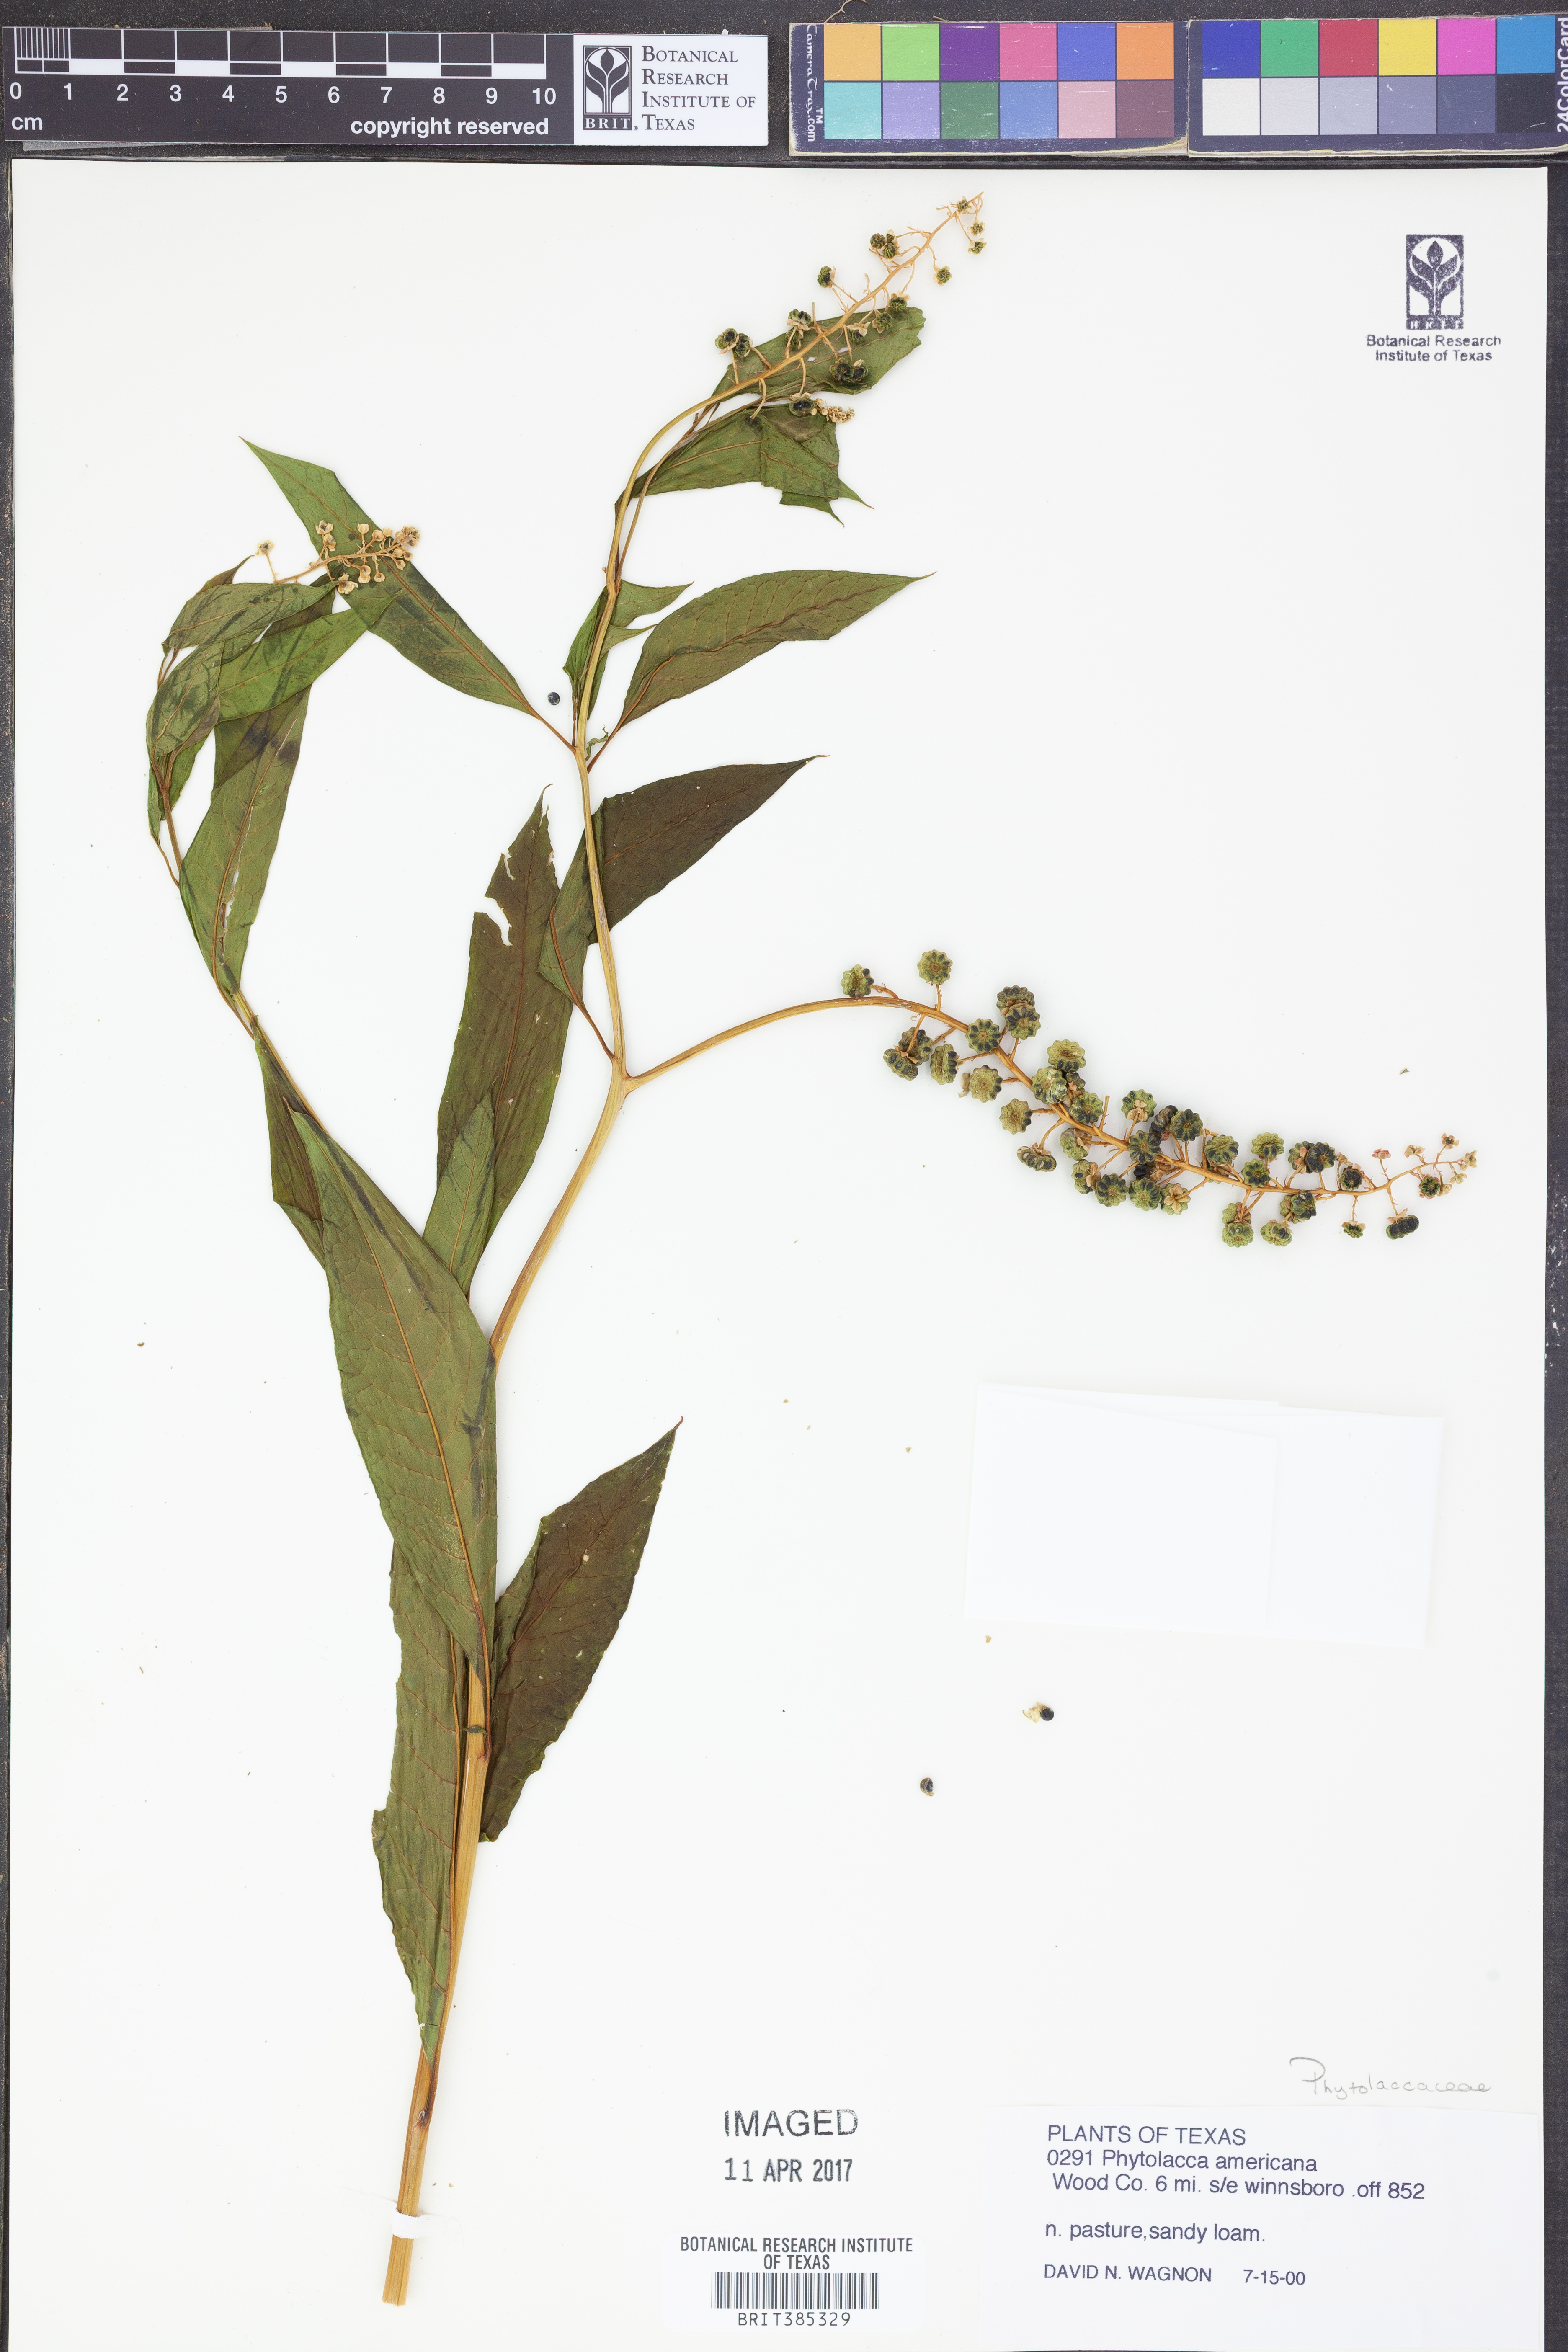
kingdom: Plantae
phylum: Tracheophyta
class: Magnoliopsida
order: Caryophyllales
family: Phytolaccaceae
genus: Phytolacca
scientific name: Phytolacca americana
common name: American pokeweed
